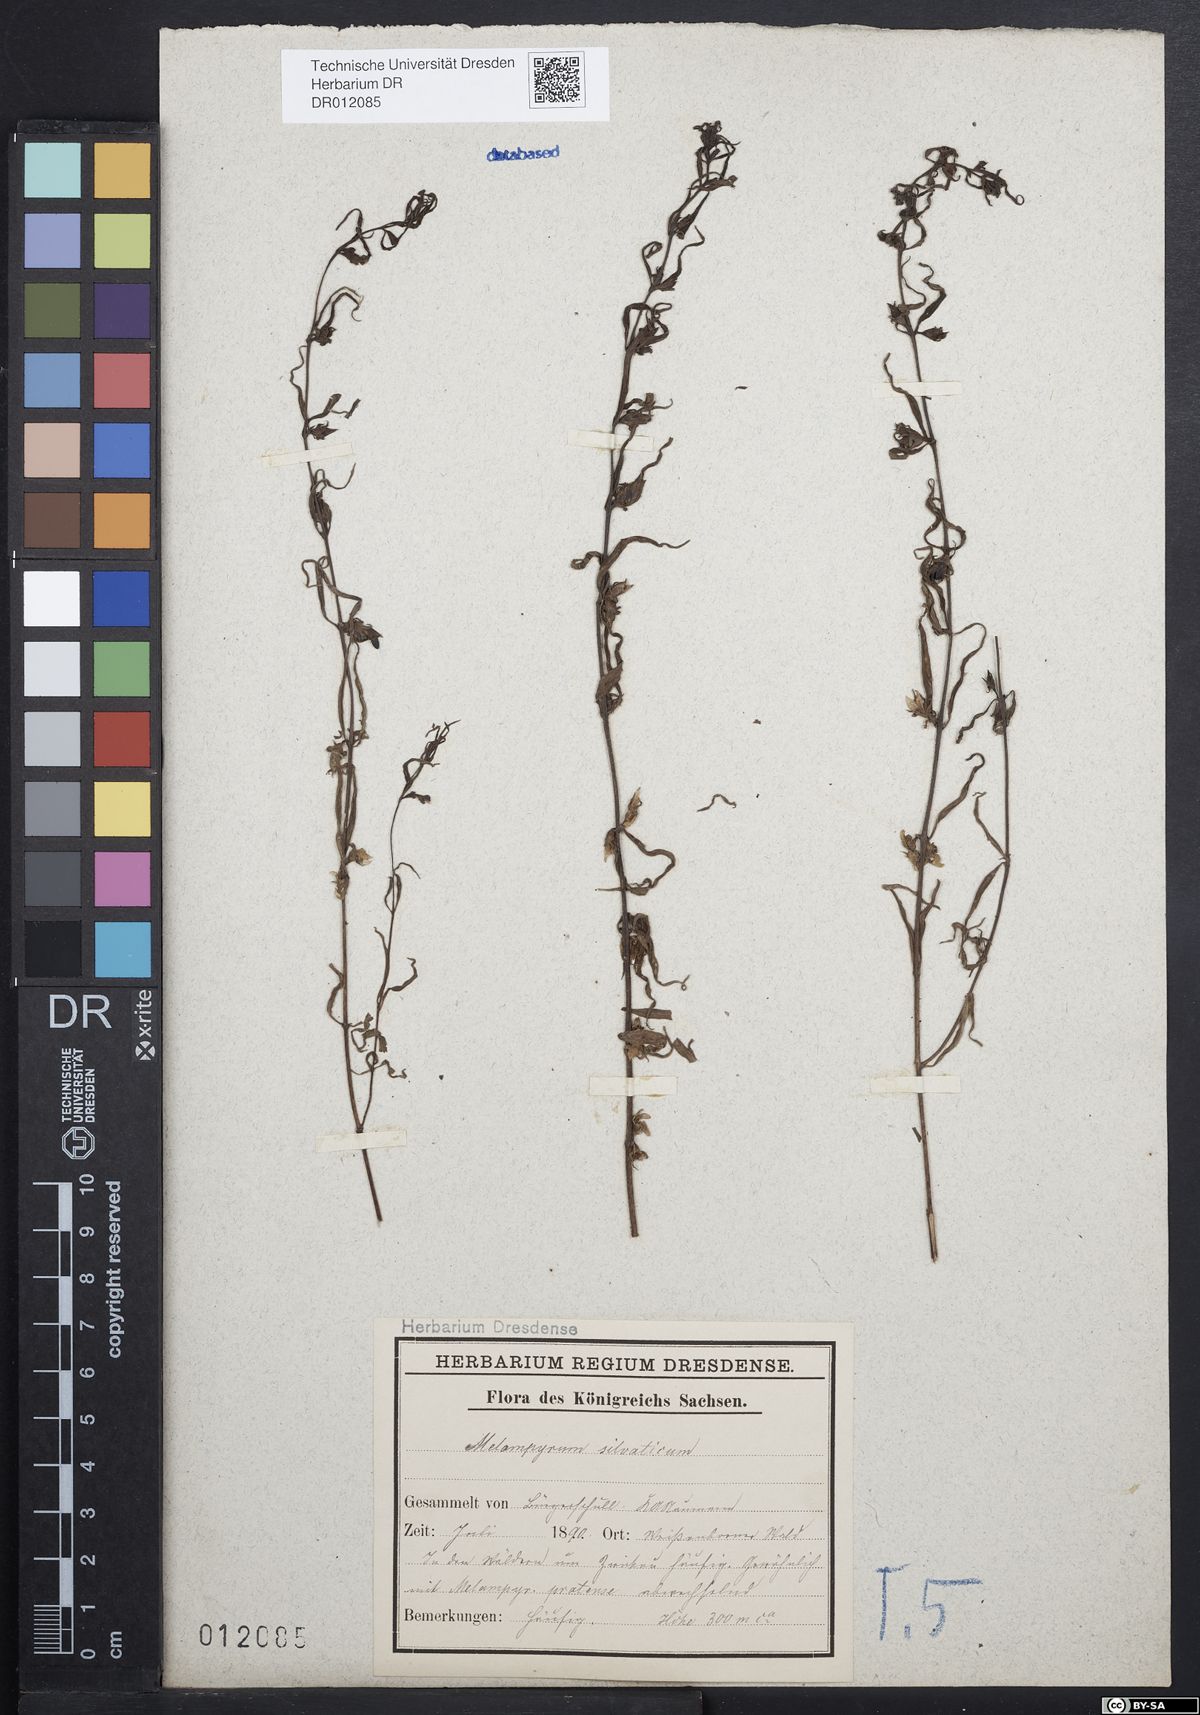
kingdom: Plantae
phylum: Tracheophyta
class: Magnoliopsida
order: Lamiales
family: Orobanchaceae
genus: Melampyrum
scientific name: Melampyrum sylvaticum
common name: Small cow-wheat
